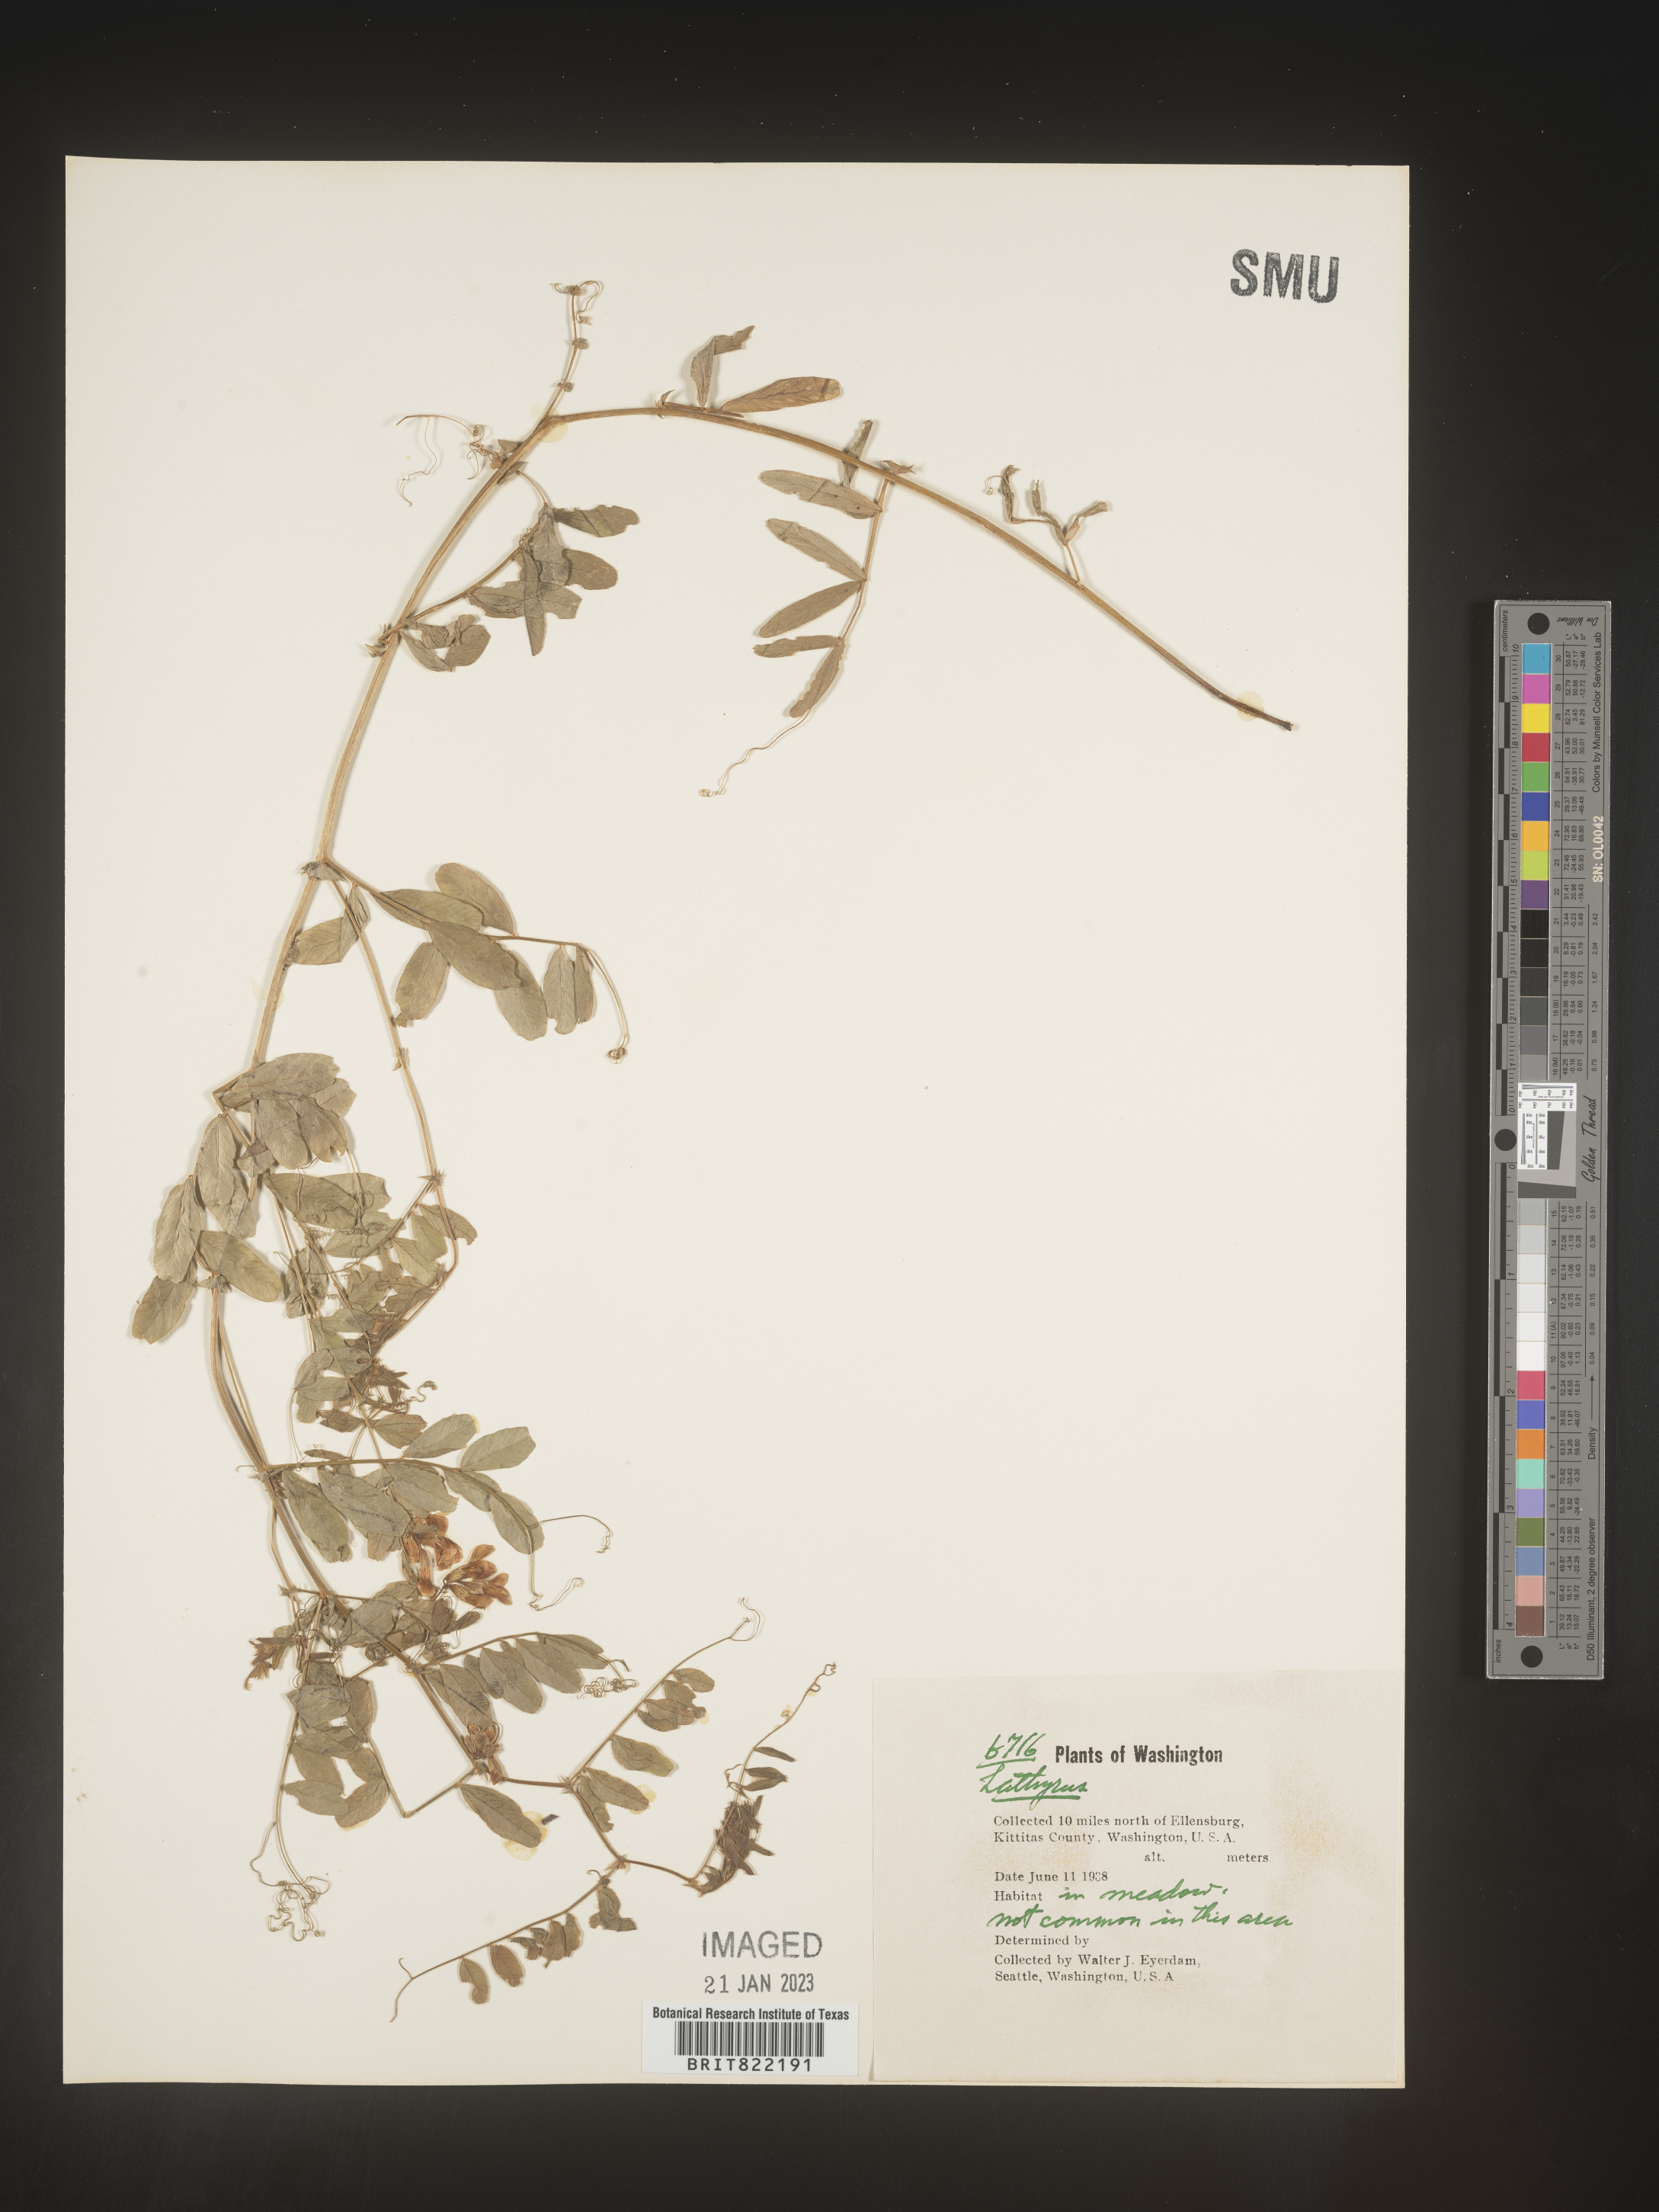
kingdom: Plantae
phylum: Tracheophyta
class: Magnoliopsida
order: Fabales
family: Fabaceae
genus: Lathyrus
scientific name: Lathyrus
